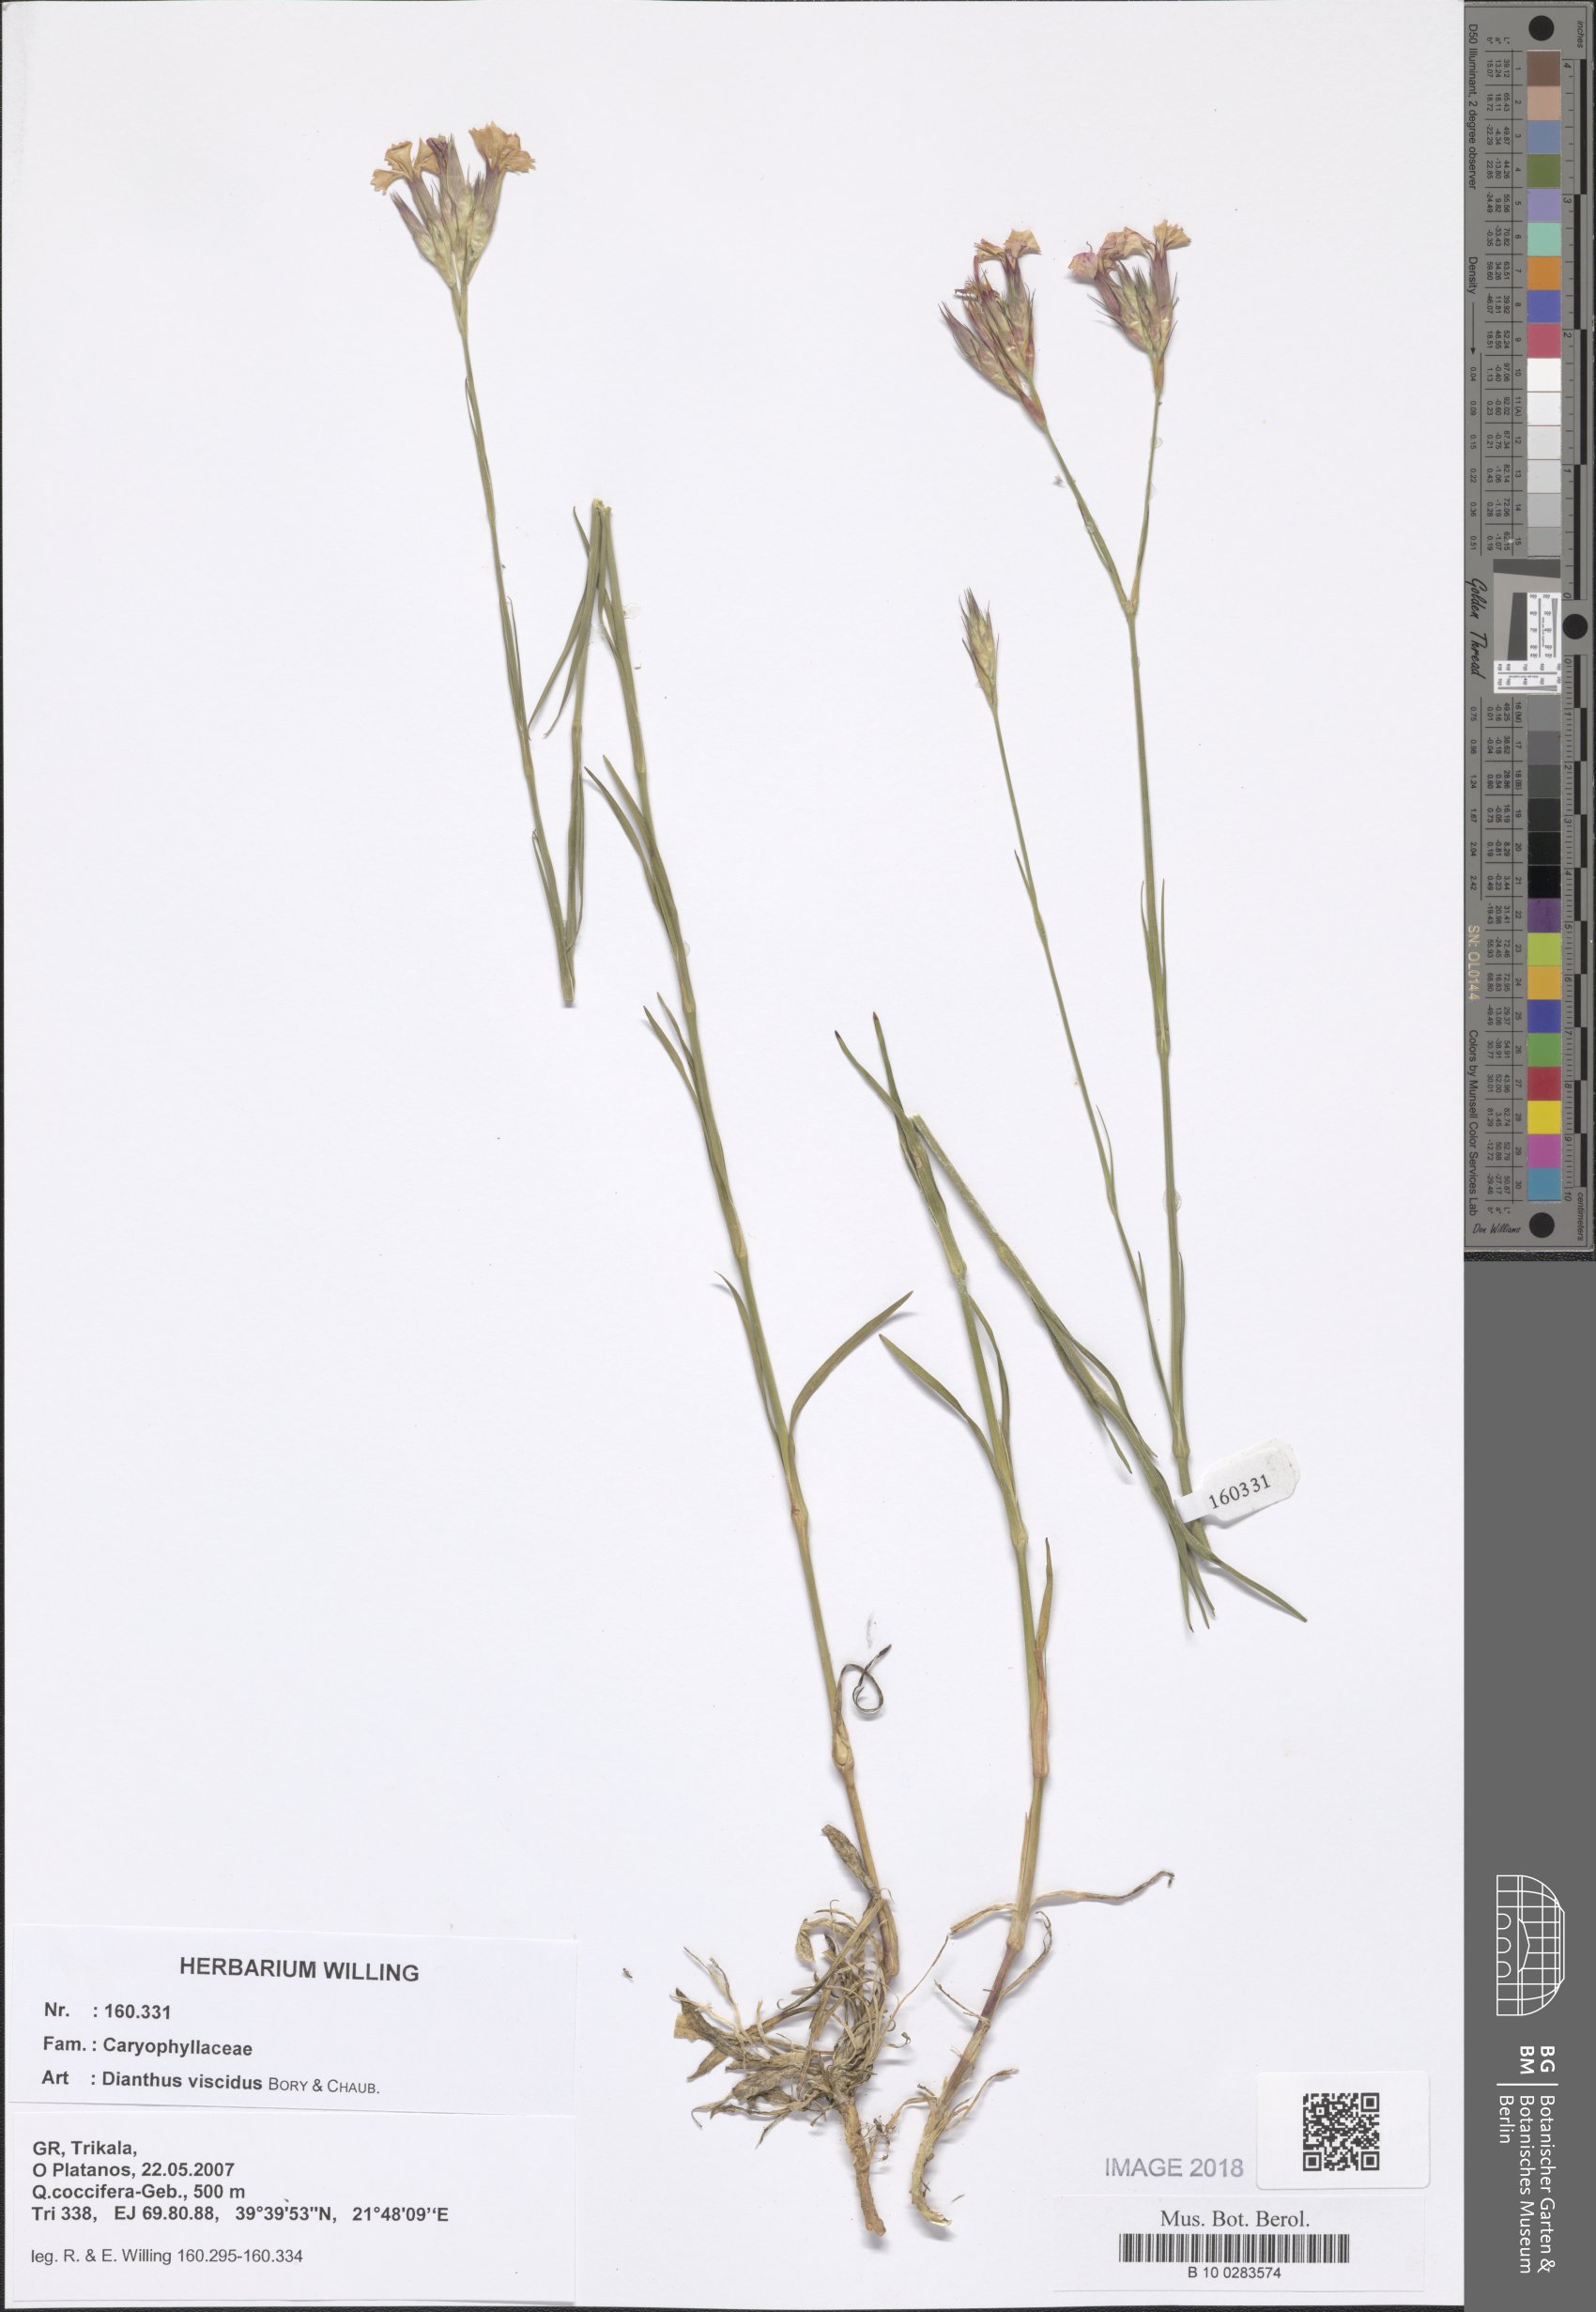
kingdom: Plantae
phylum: Tracheophyta
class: Magnoliopsida
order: Caryophyllales
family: Caryophyllaceae
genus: Dianthus
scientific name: Dianthus viscidus
